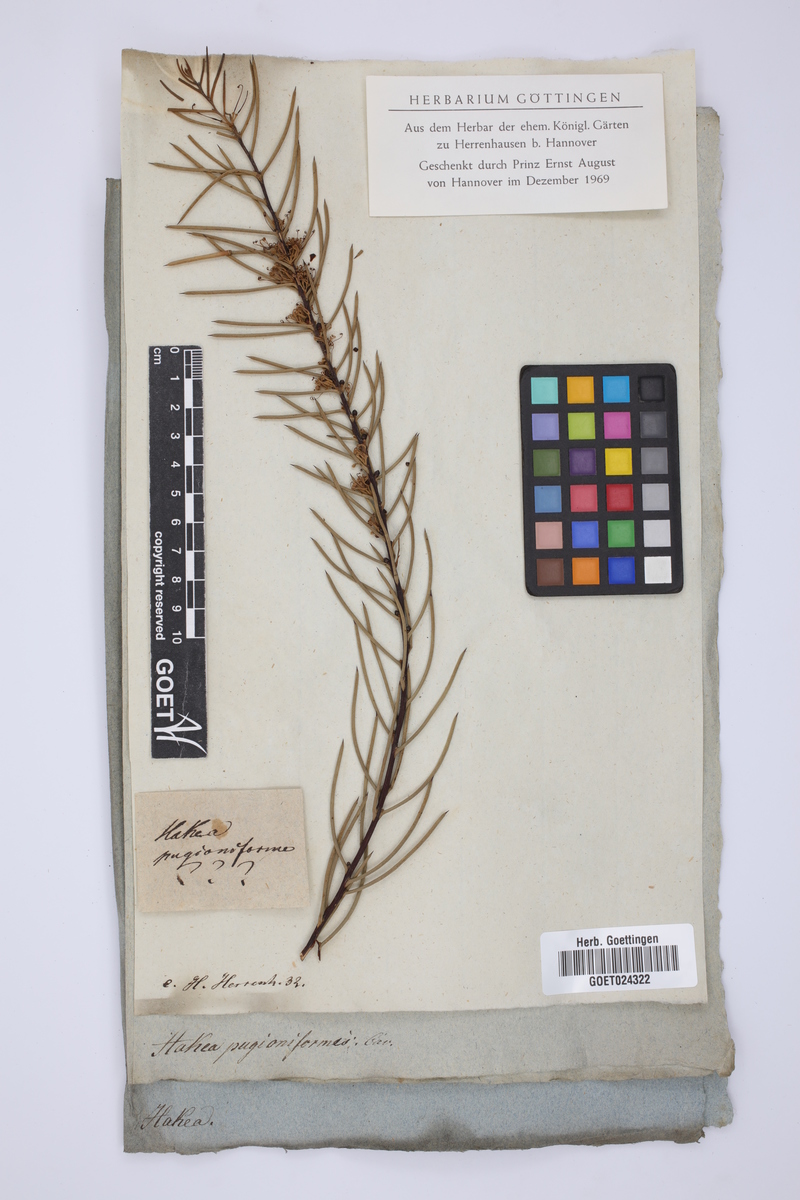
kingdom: Plantae
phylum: Tracheophyta
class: Magnoliopsida
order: Proteales
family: Proteaceae
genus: Hakea
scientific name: Hakea teretifolia
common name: Dagger hakea
